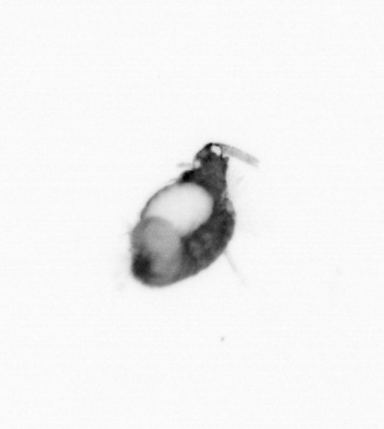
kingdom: Animalia
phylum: Annelida
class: Polychaeta
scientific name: Polychaeta
